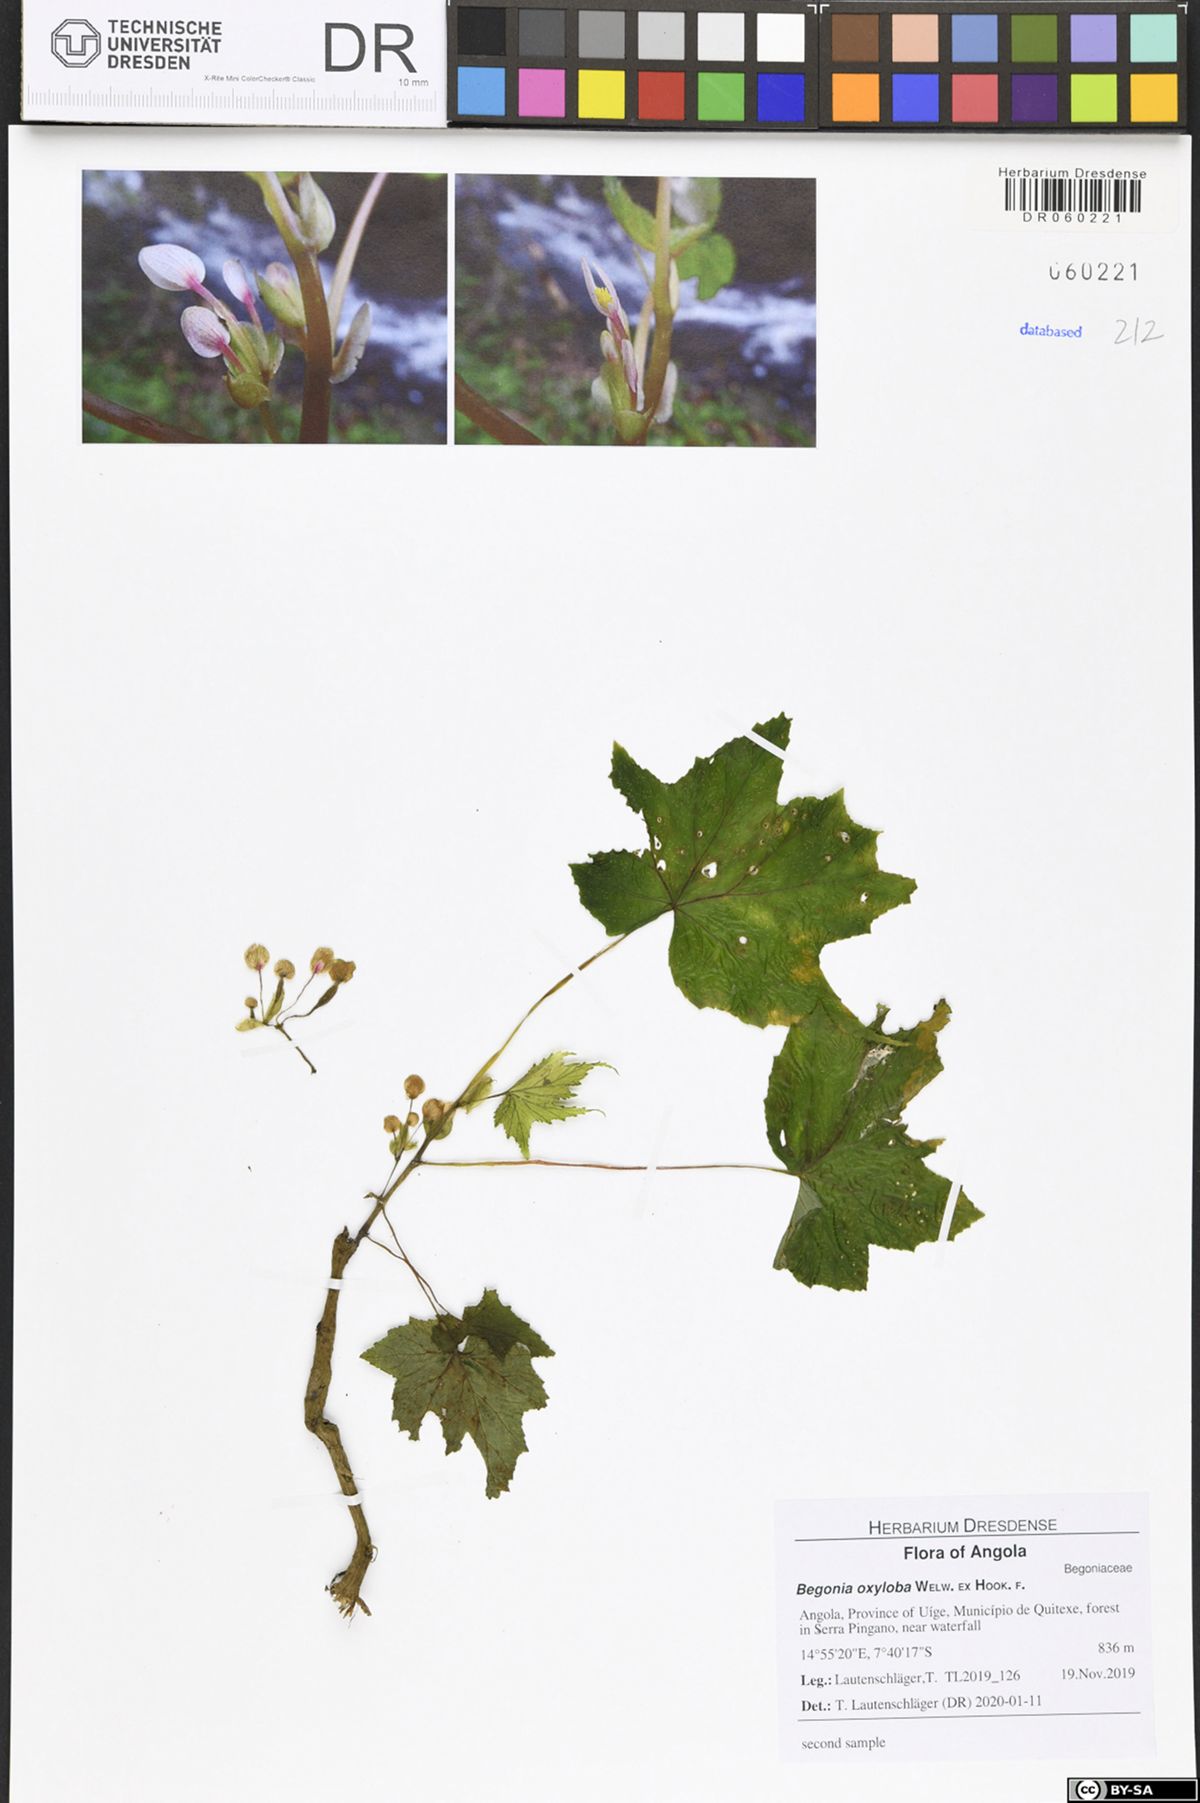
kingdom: Plantae
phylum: Tracheophyta
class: Magnoliopsida
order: Cucurbitales
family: Begoniaceae
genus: Begonia
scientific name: Begonia oxyloba
